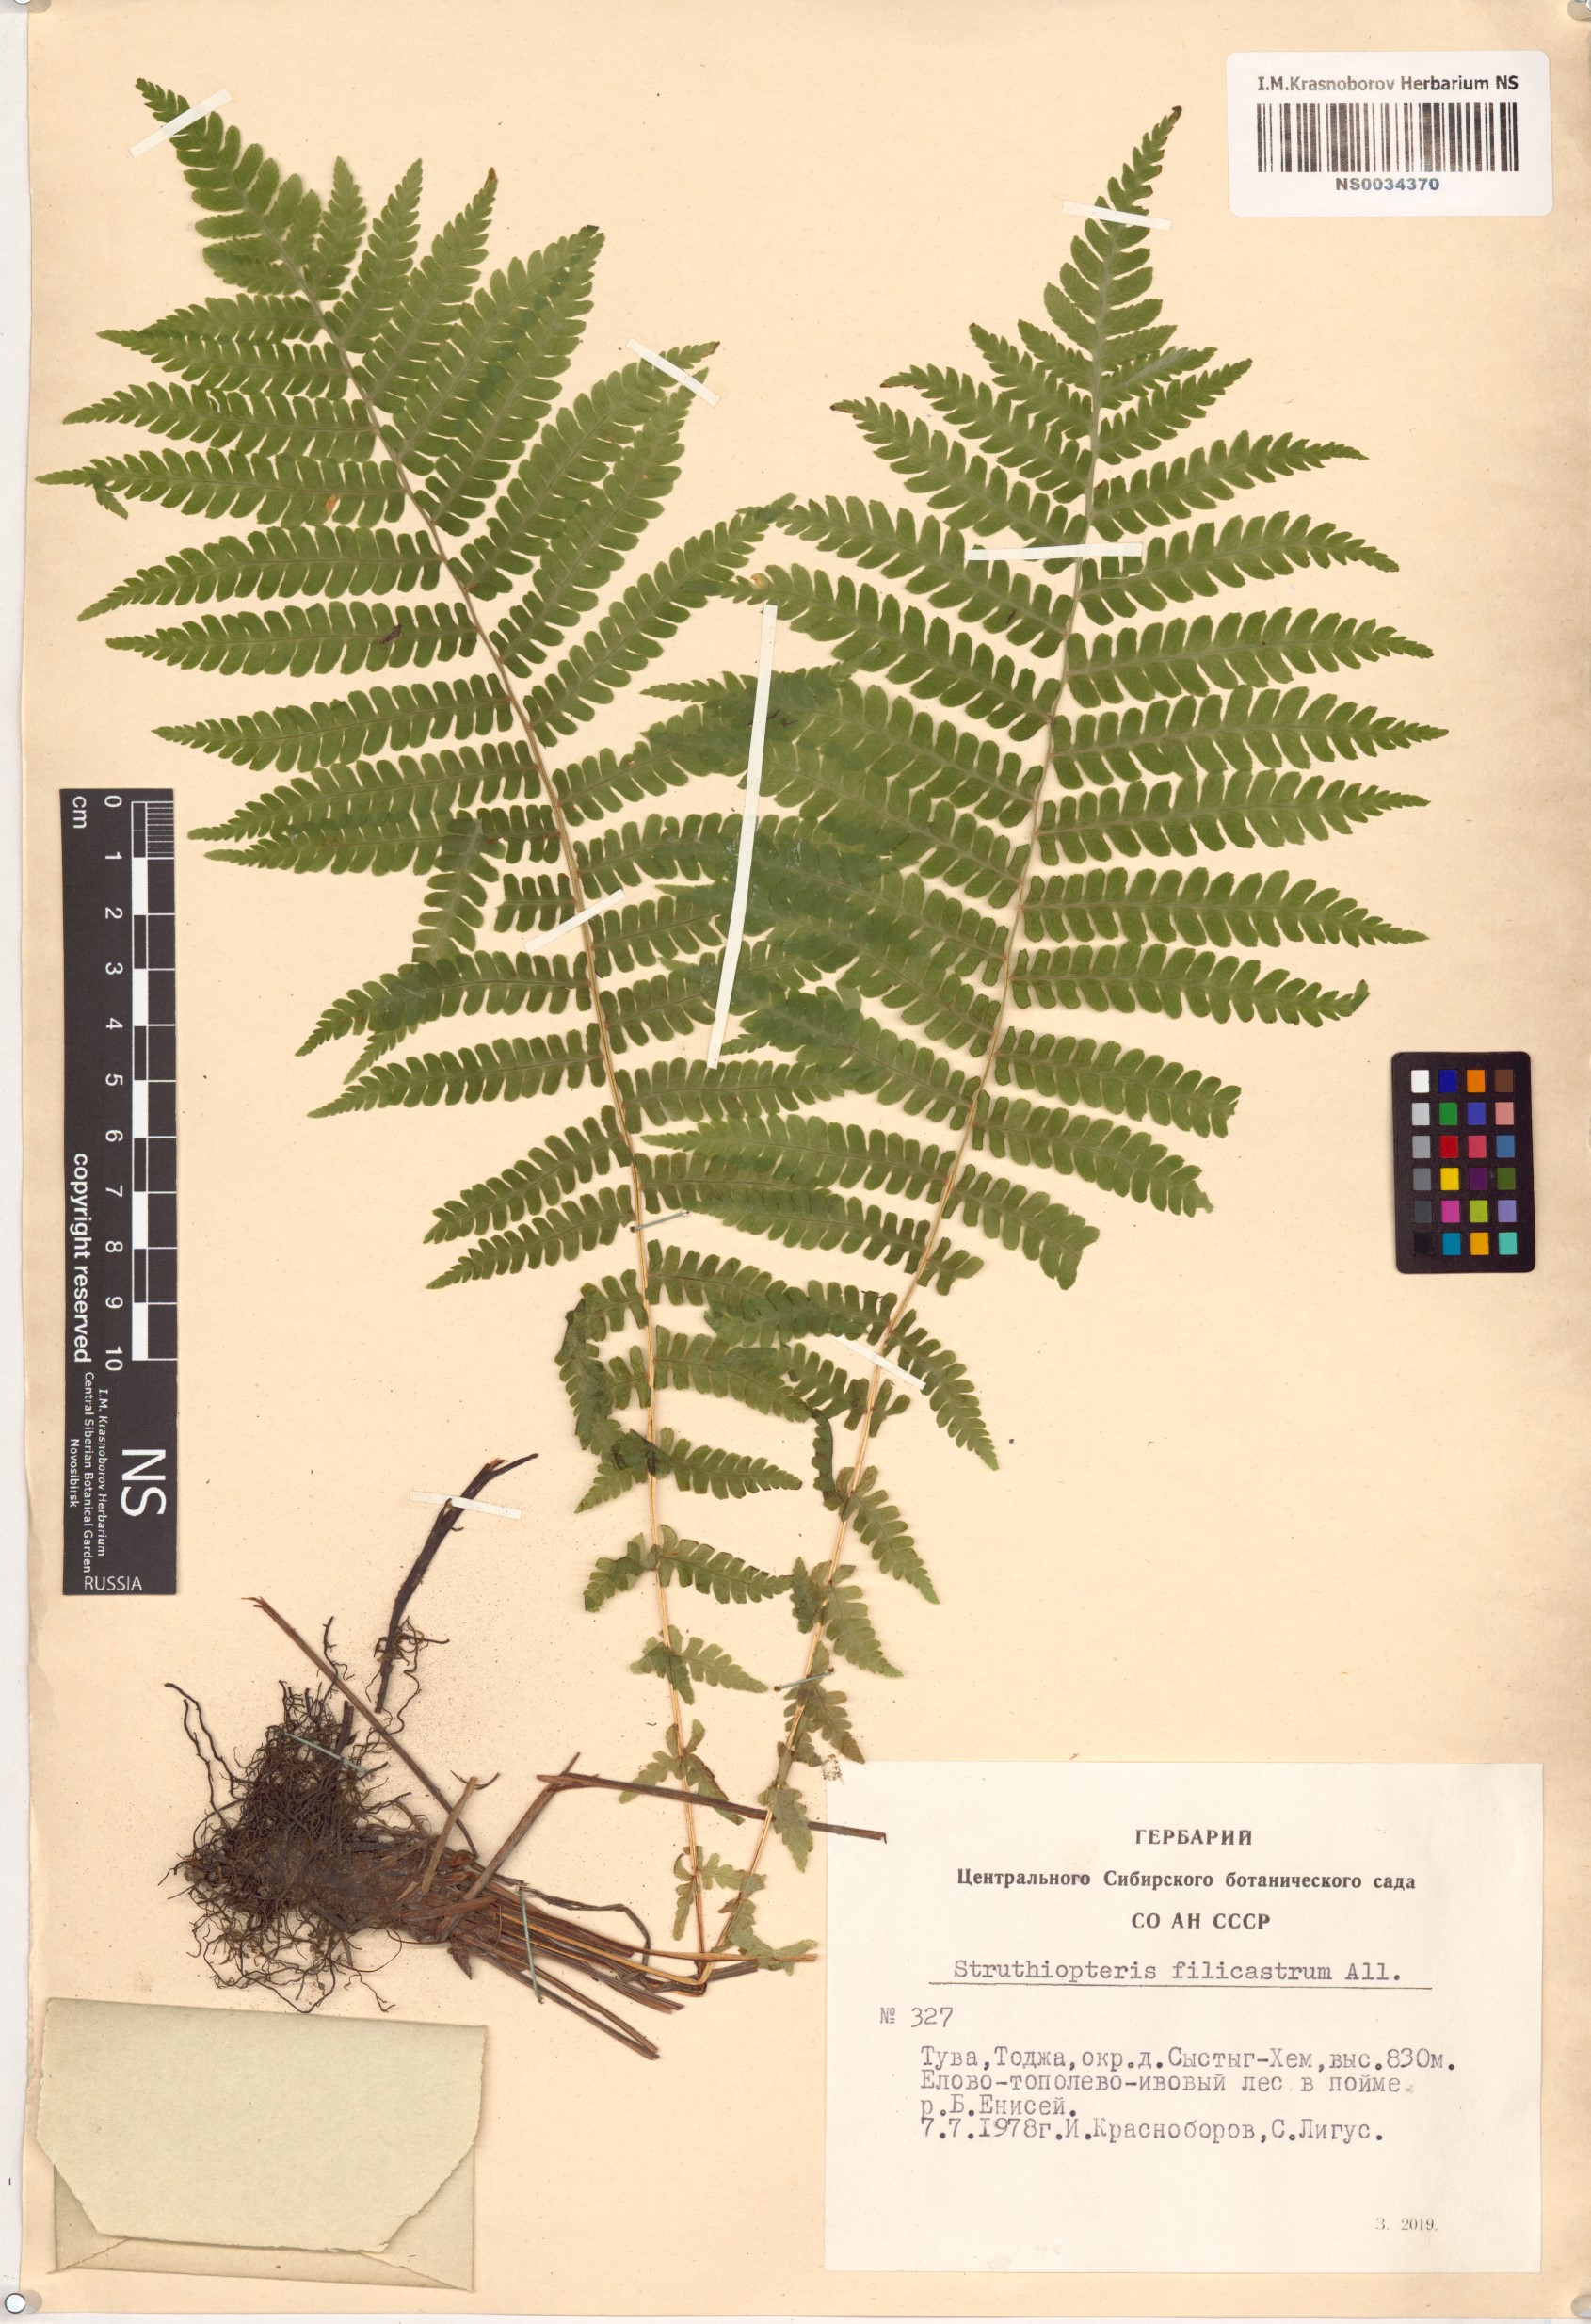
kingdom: Plantae
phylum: Tracheophyta
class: Polypodiopsida
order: Polypodiales
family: Onocleaceae
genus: Matteuccia
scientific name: Matteuccia struthiopteris
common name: Ostrich fern
